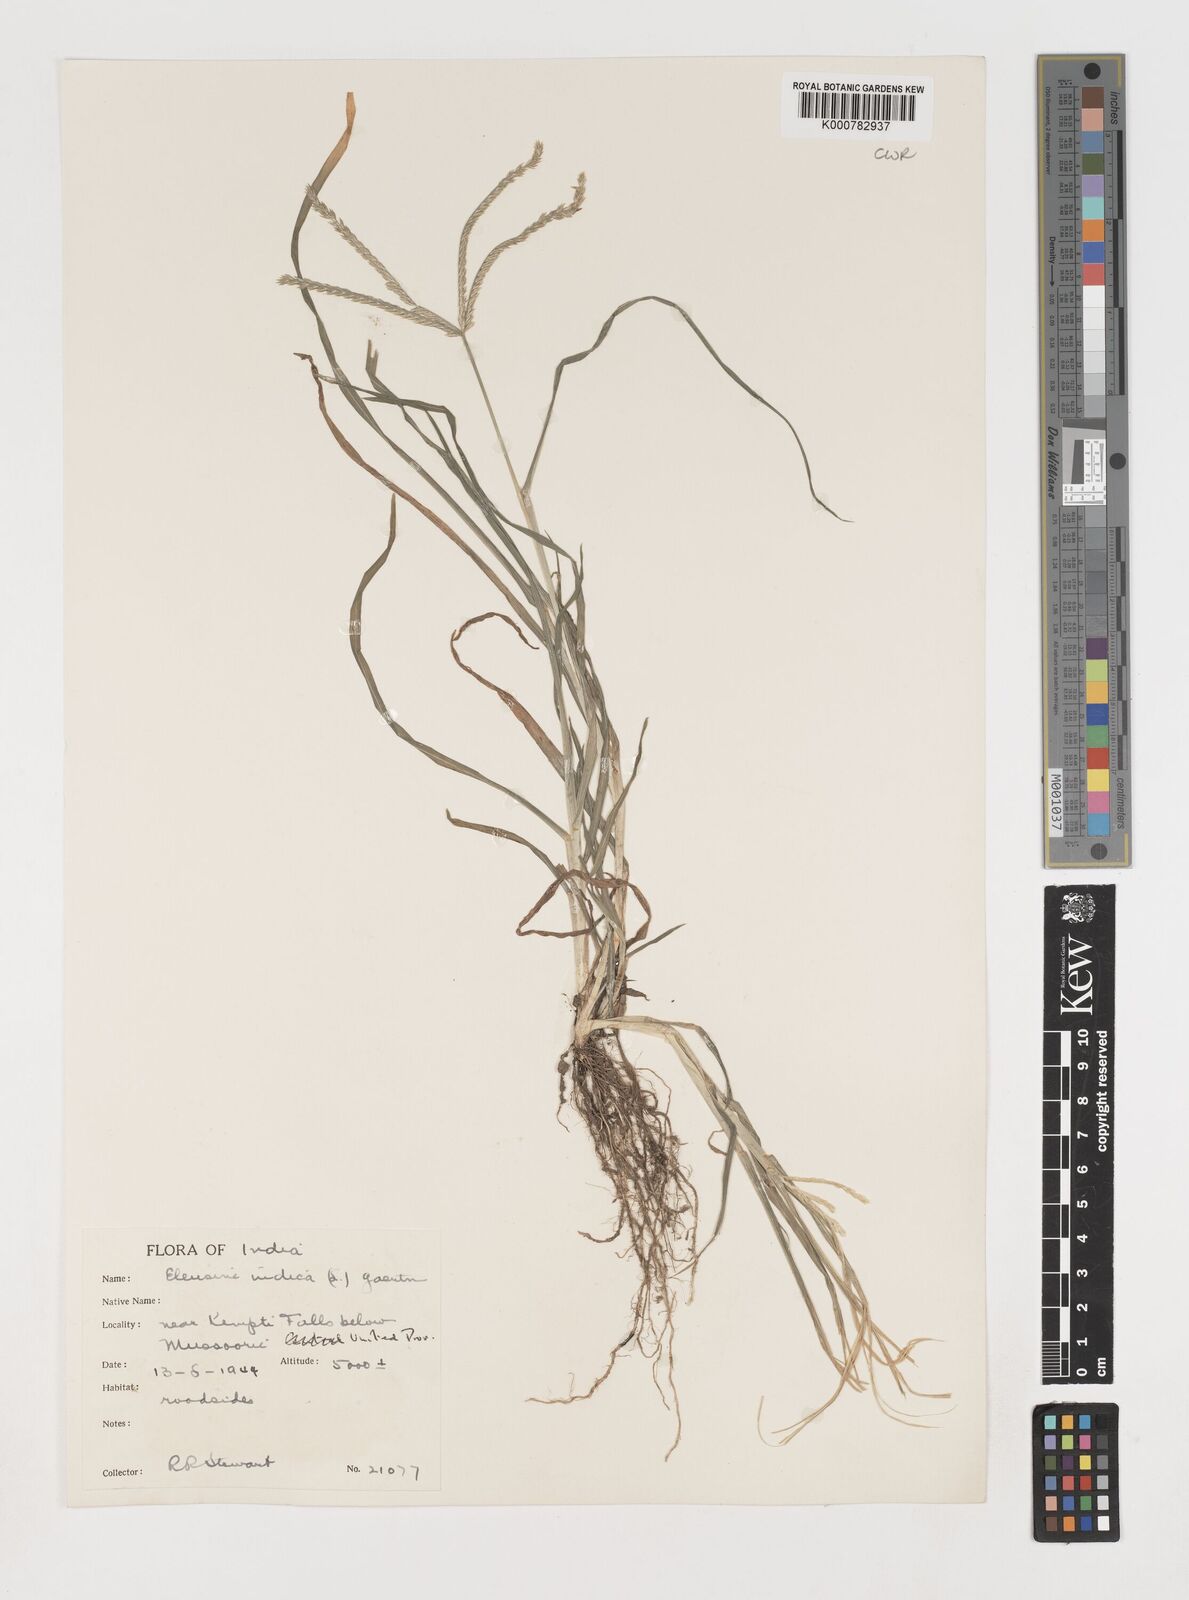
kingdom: Plantae
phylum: Tracheophyta
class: Liliopsida
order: Poales
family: Poaceae
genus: Eleusine
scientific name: Eleusine indica
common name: Yard-grass
